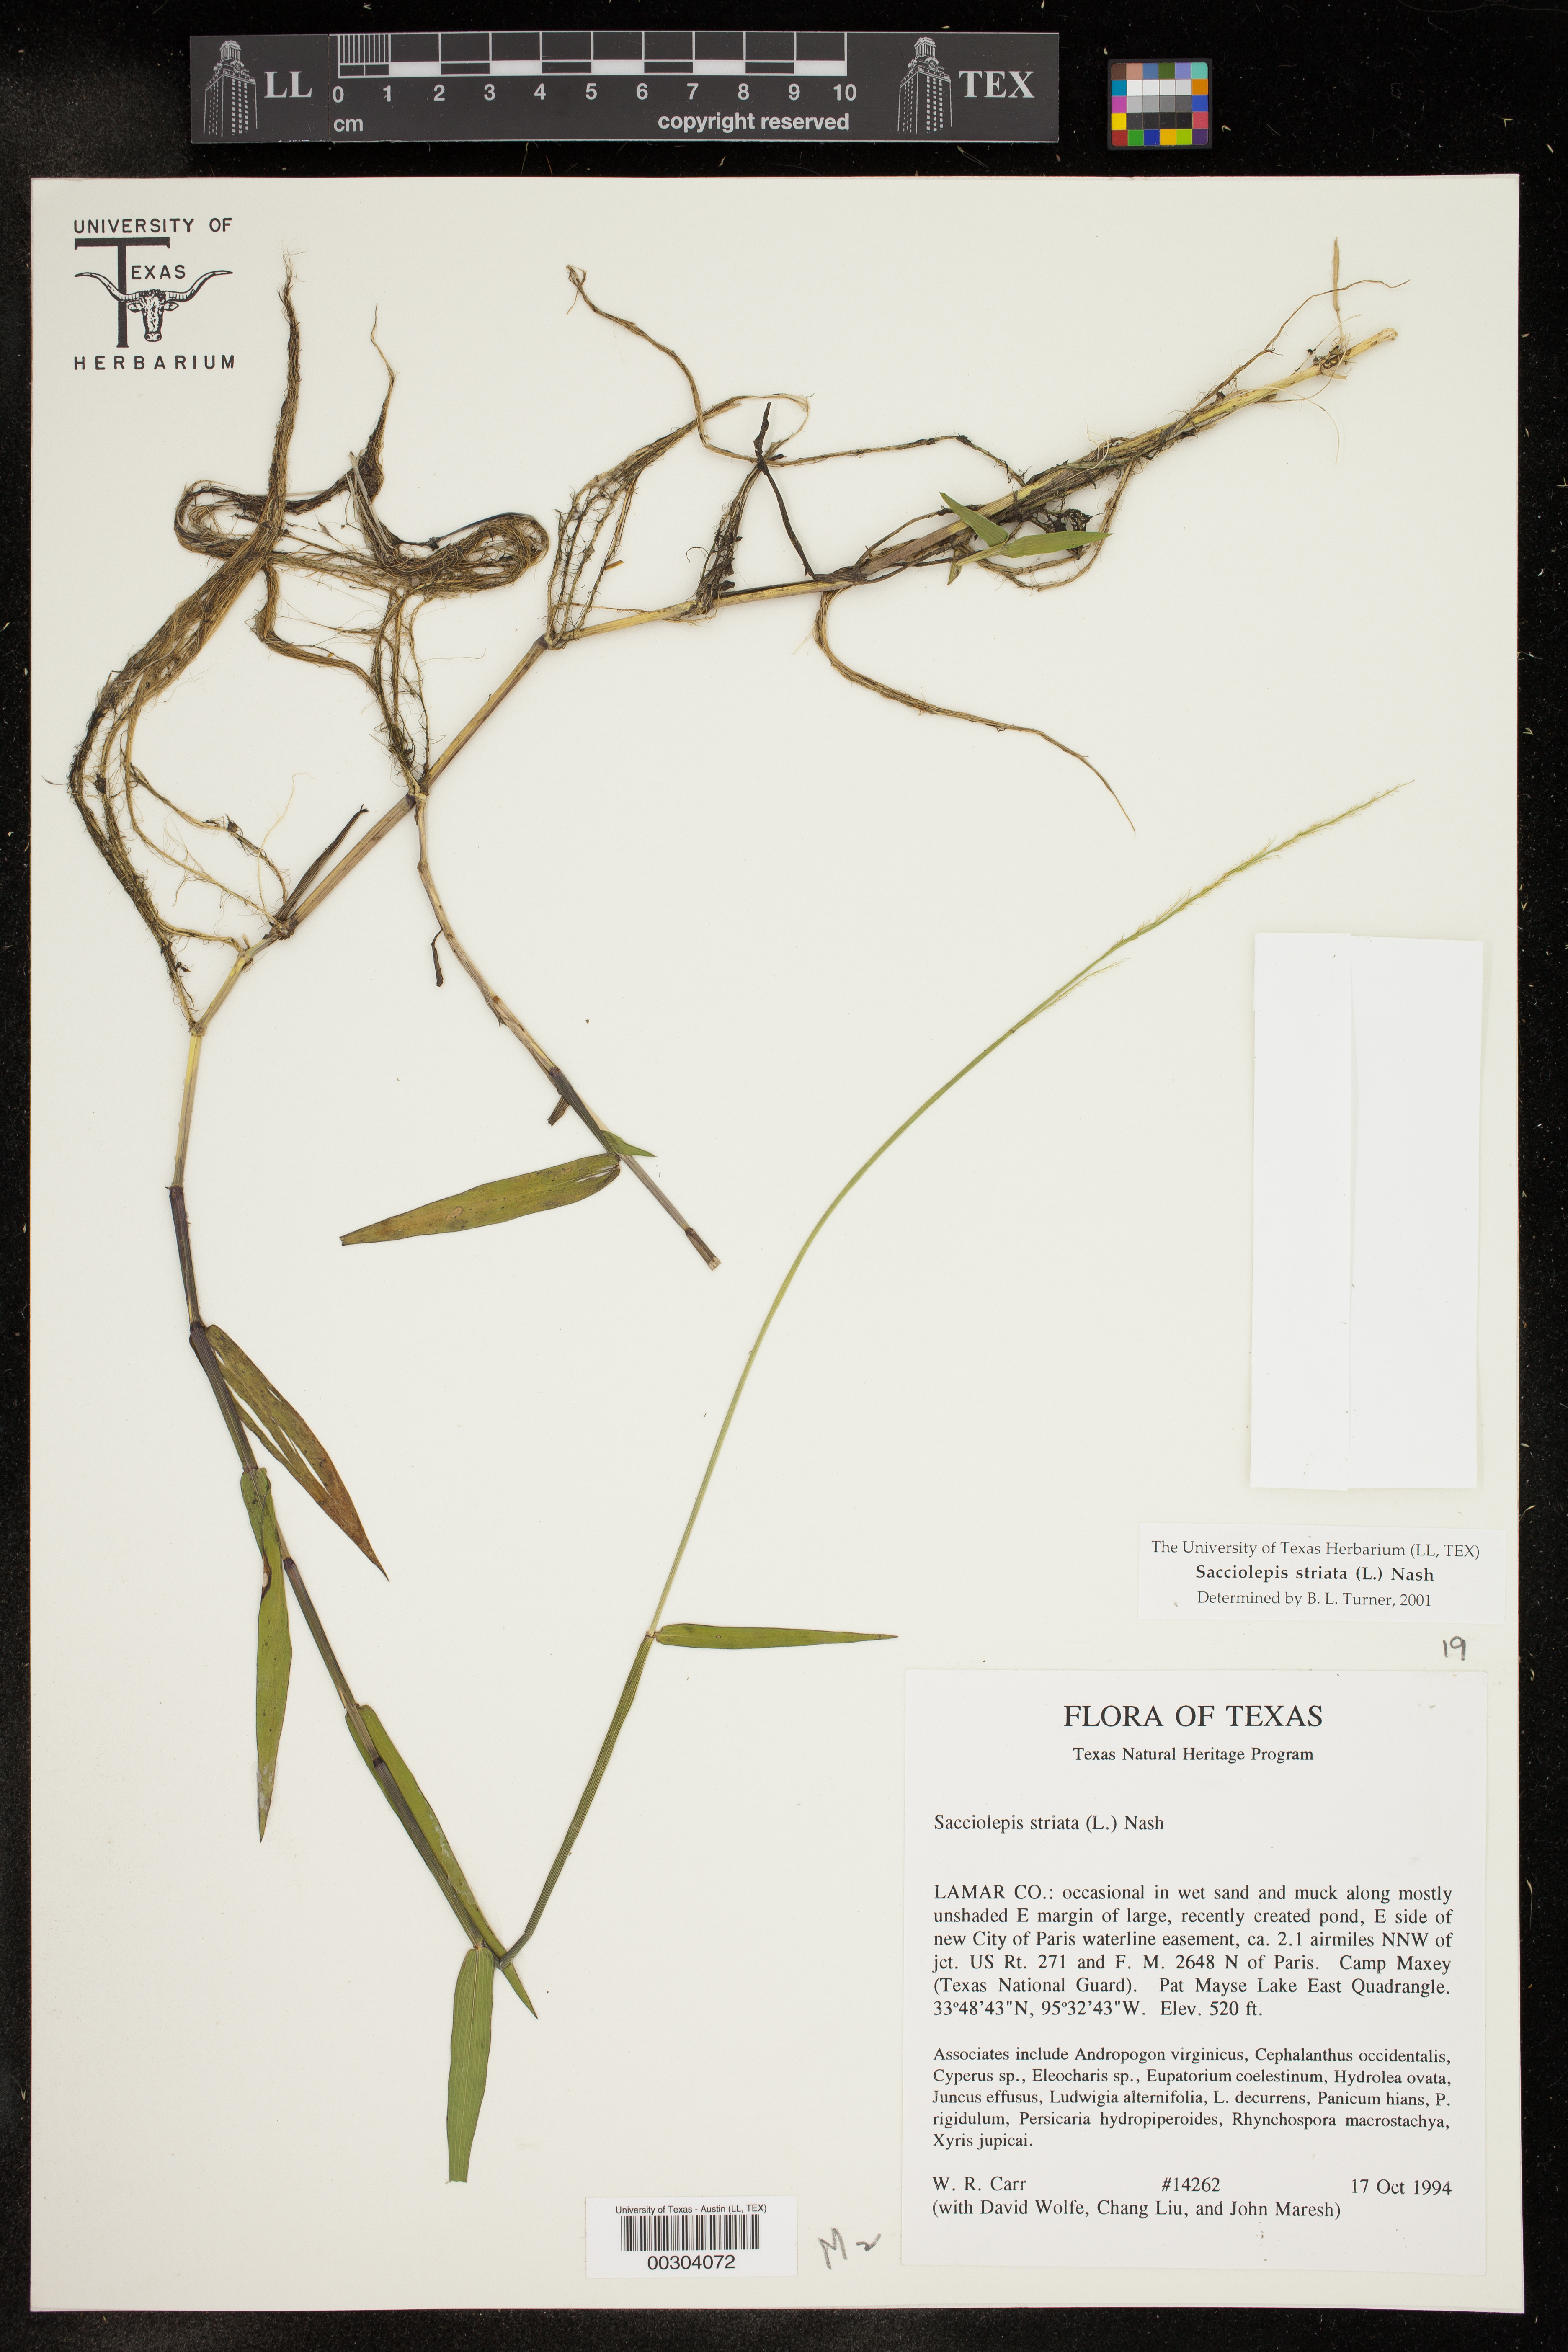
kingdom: Plantae
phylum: Tracheophyta
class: Liliopsida
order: Poales
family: Poaceae
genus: Sacciolepis
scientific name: Sacciolepis striata
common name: American cupscale
